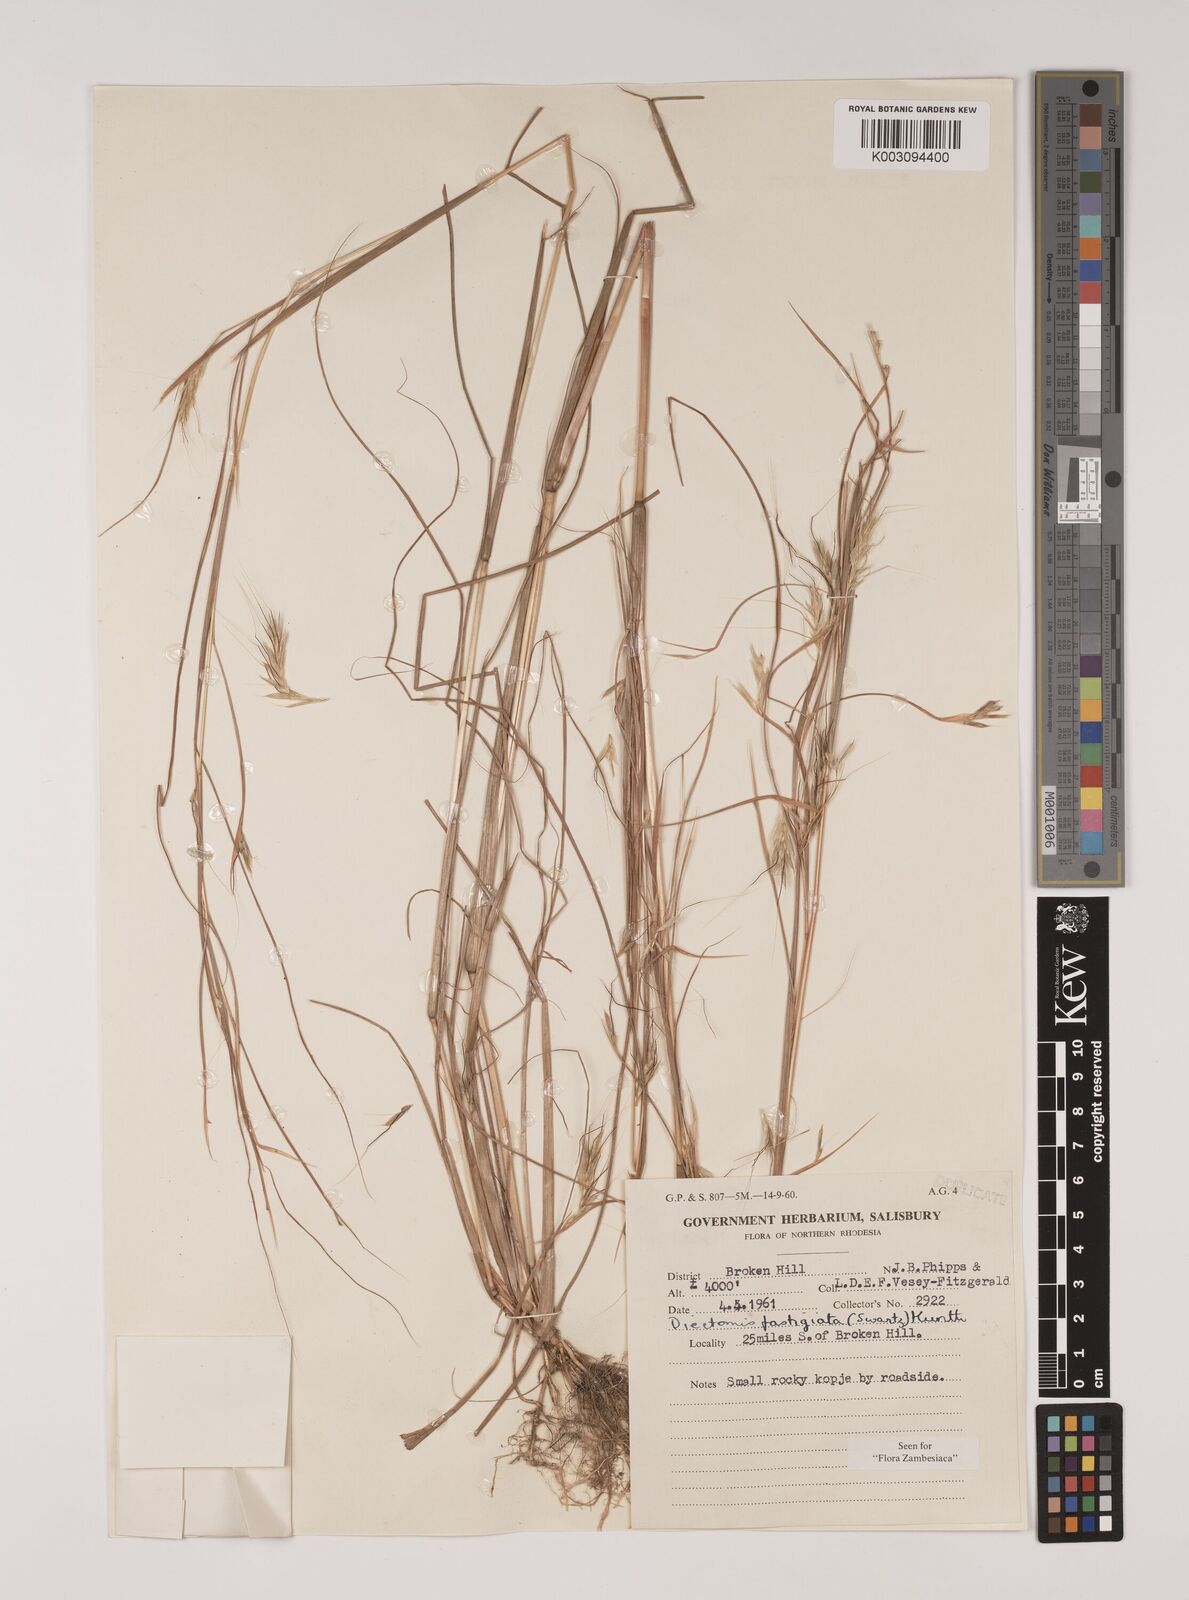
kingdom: Plantae
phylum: Tracheophyta
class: Liliopsida
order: Poales
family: Poaceae
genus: Diectomis
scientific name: Diectomis fastigiata
